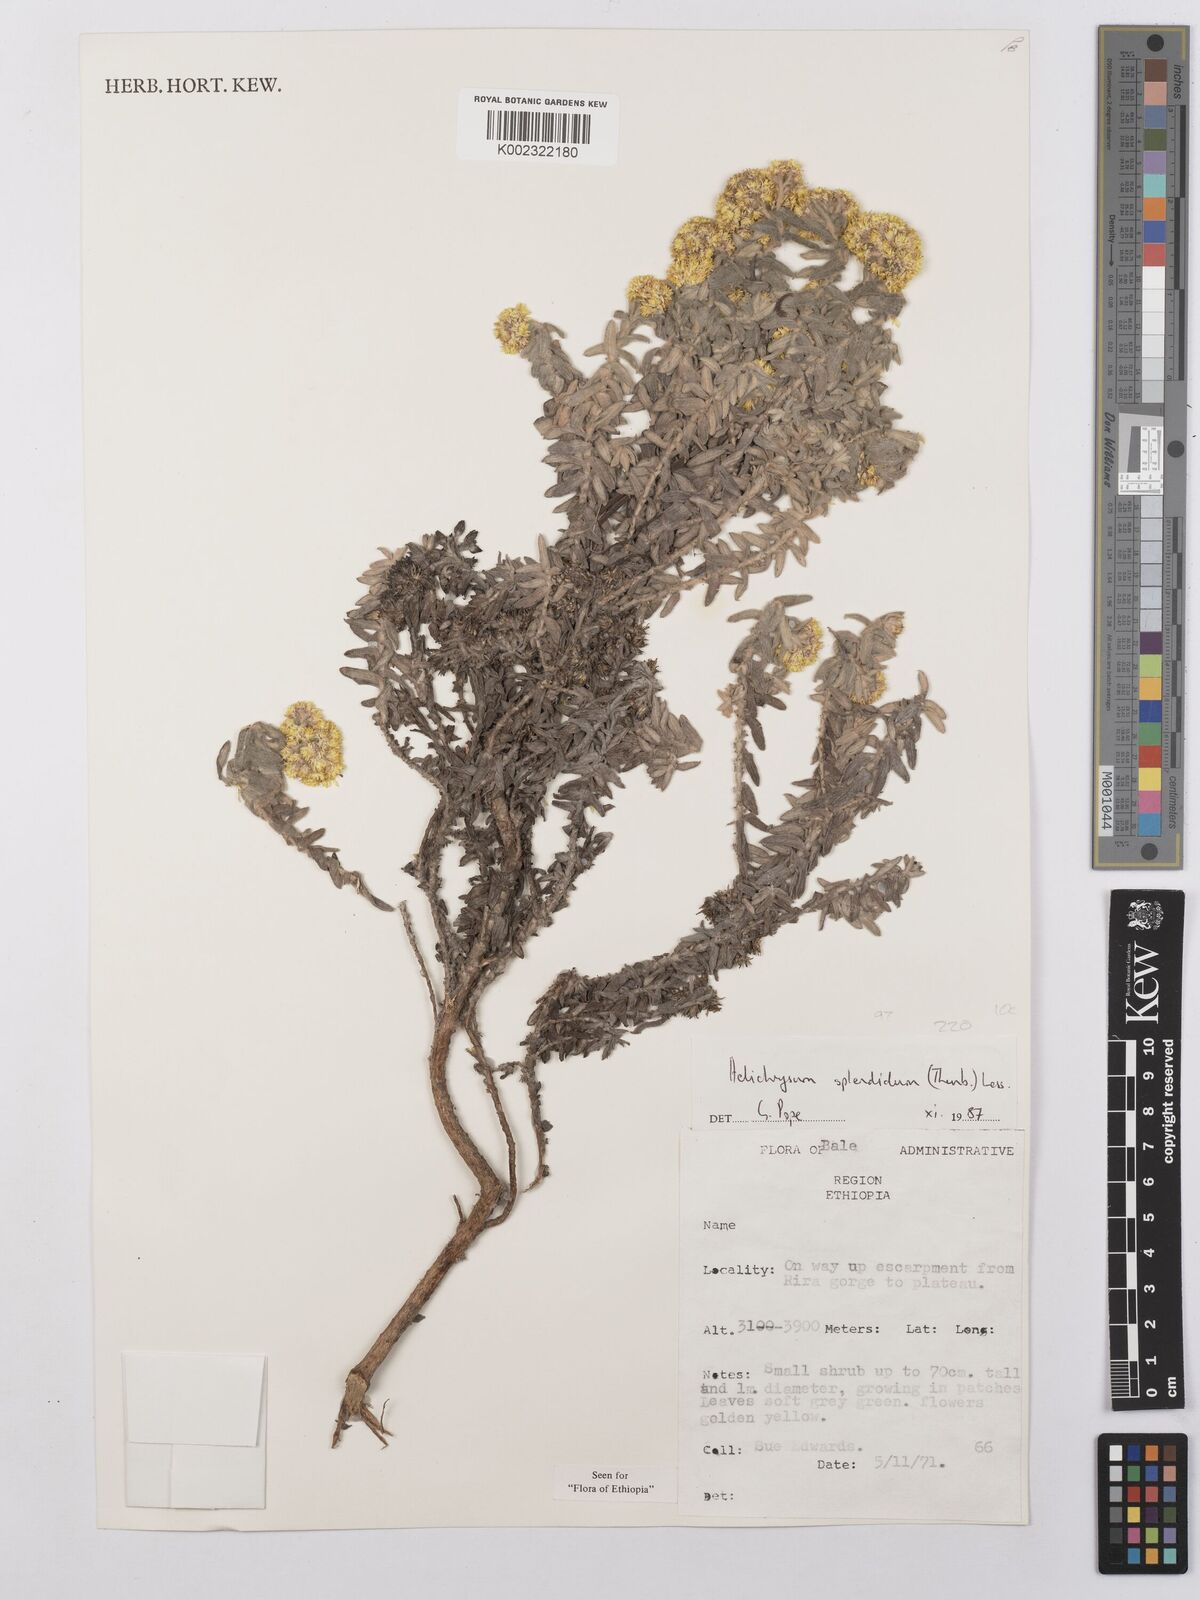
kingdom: Plantae
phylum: Tracheophyta
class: Magnoliopsida
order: Asterales
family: Asteraceae
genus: Helichrysum
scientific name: Helichrysum splendidum
